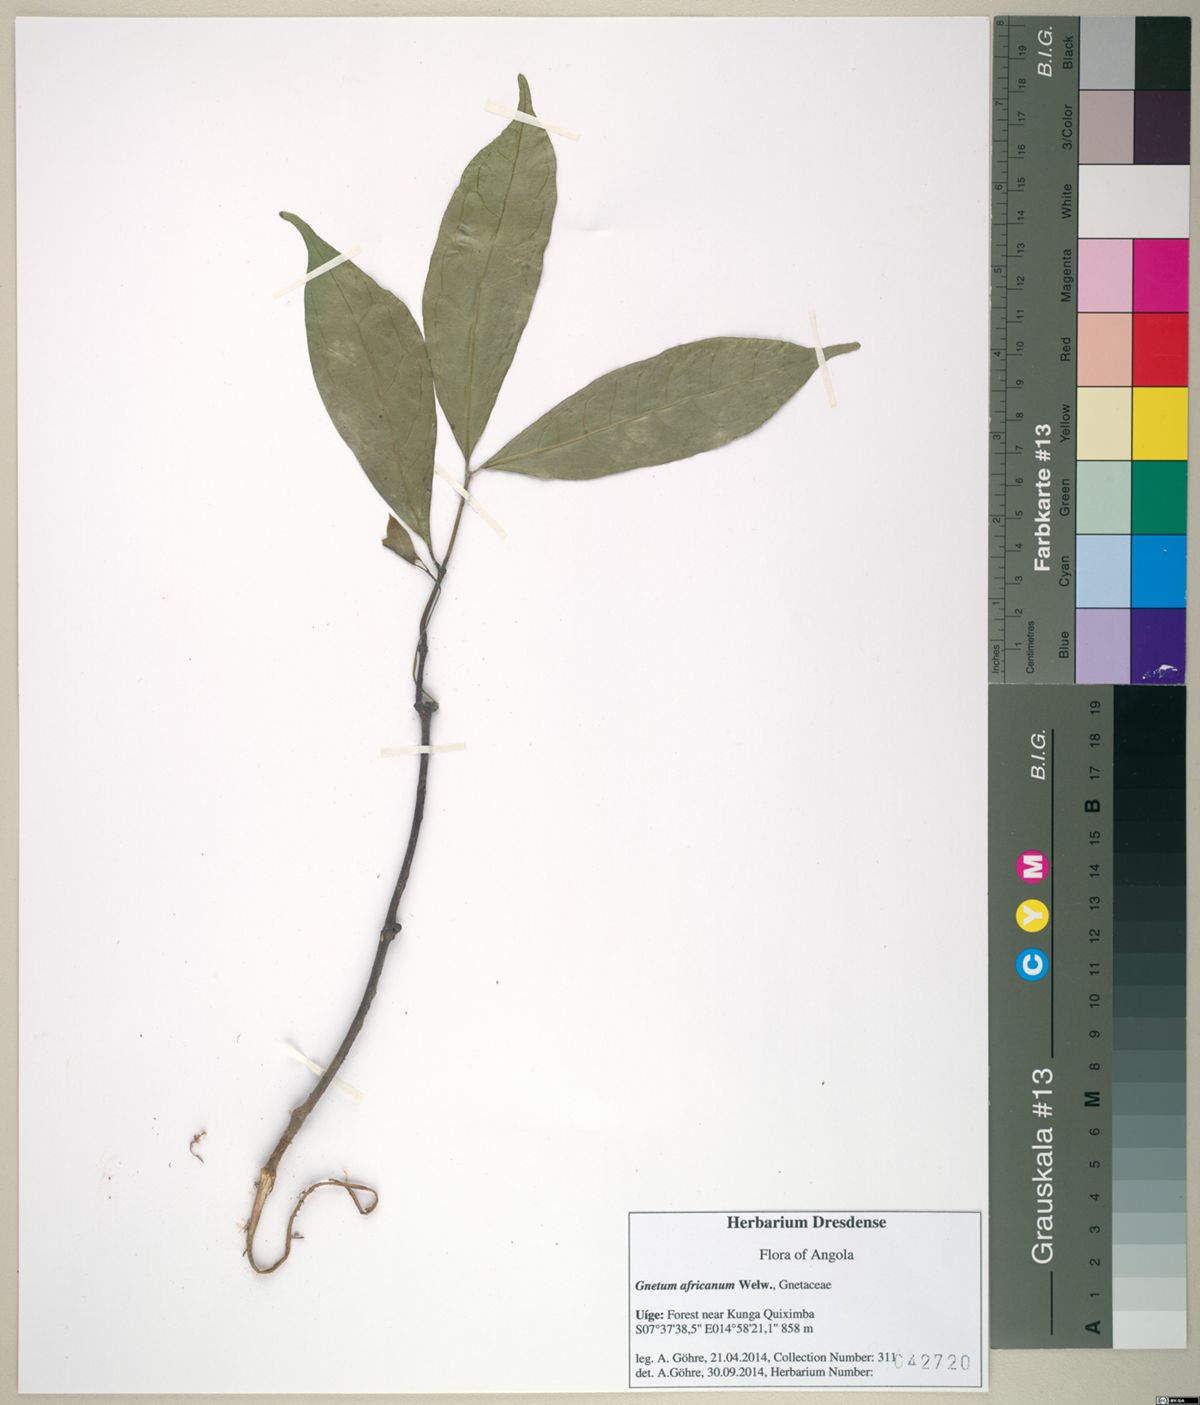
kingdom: Plantae
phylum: Tracheophyta
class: Gnetopsida
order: Gnetales
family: Gnetaceae
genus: Gnetum
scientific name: Gnetum africanum
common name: Eru
